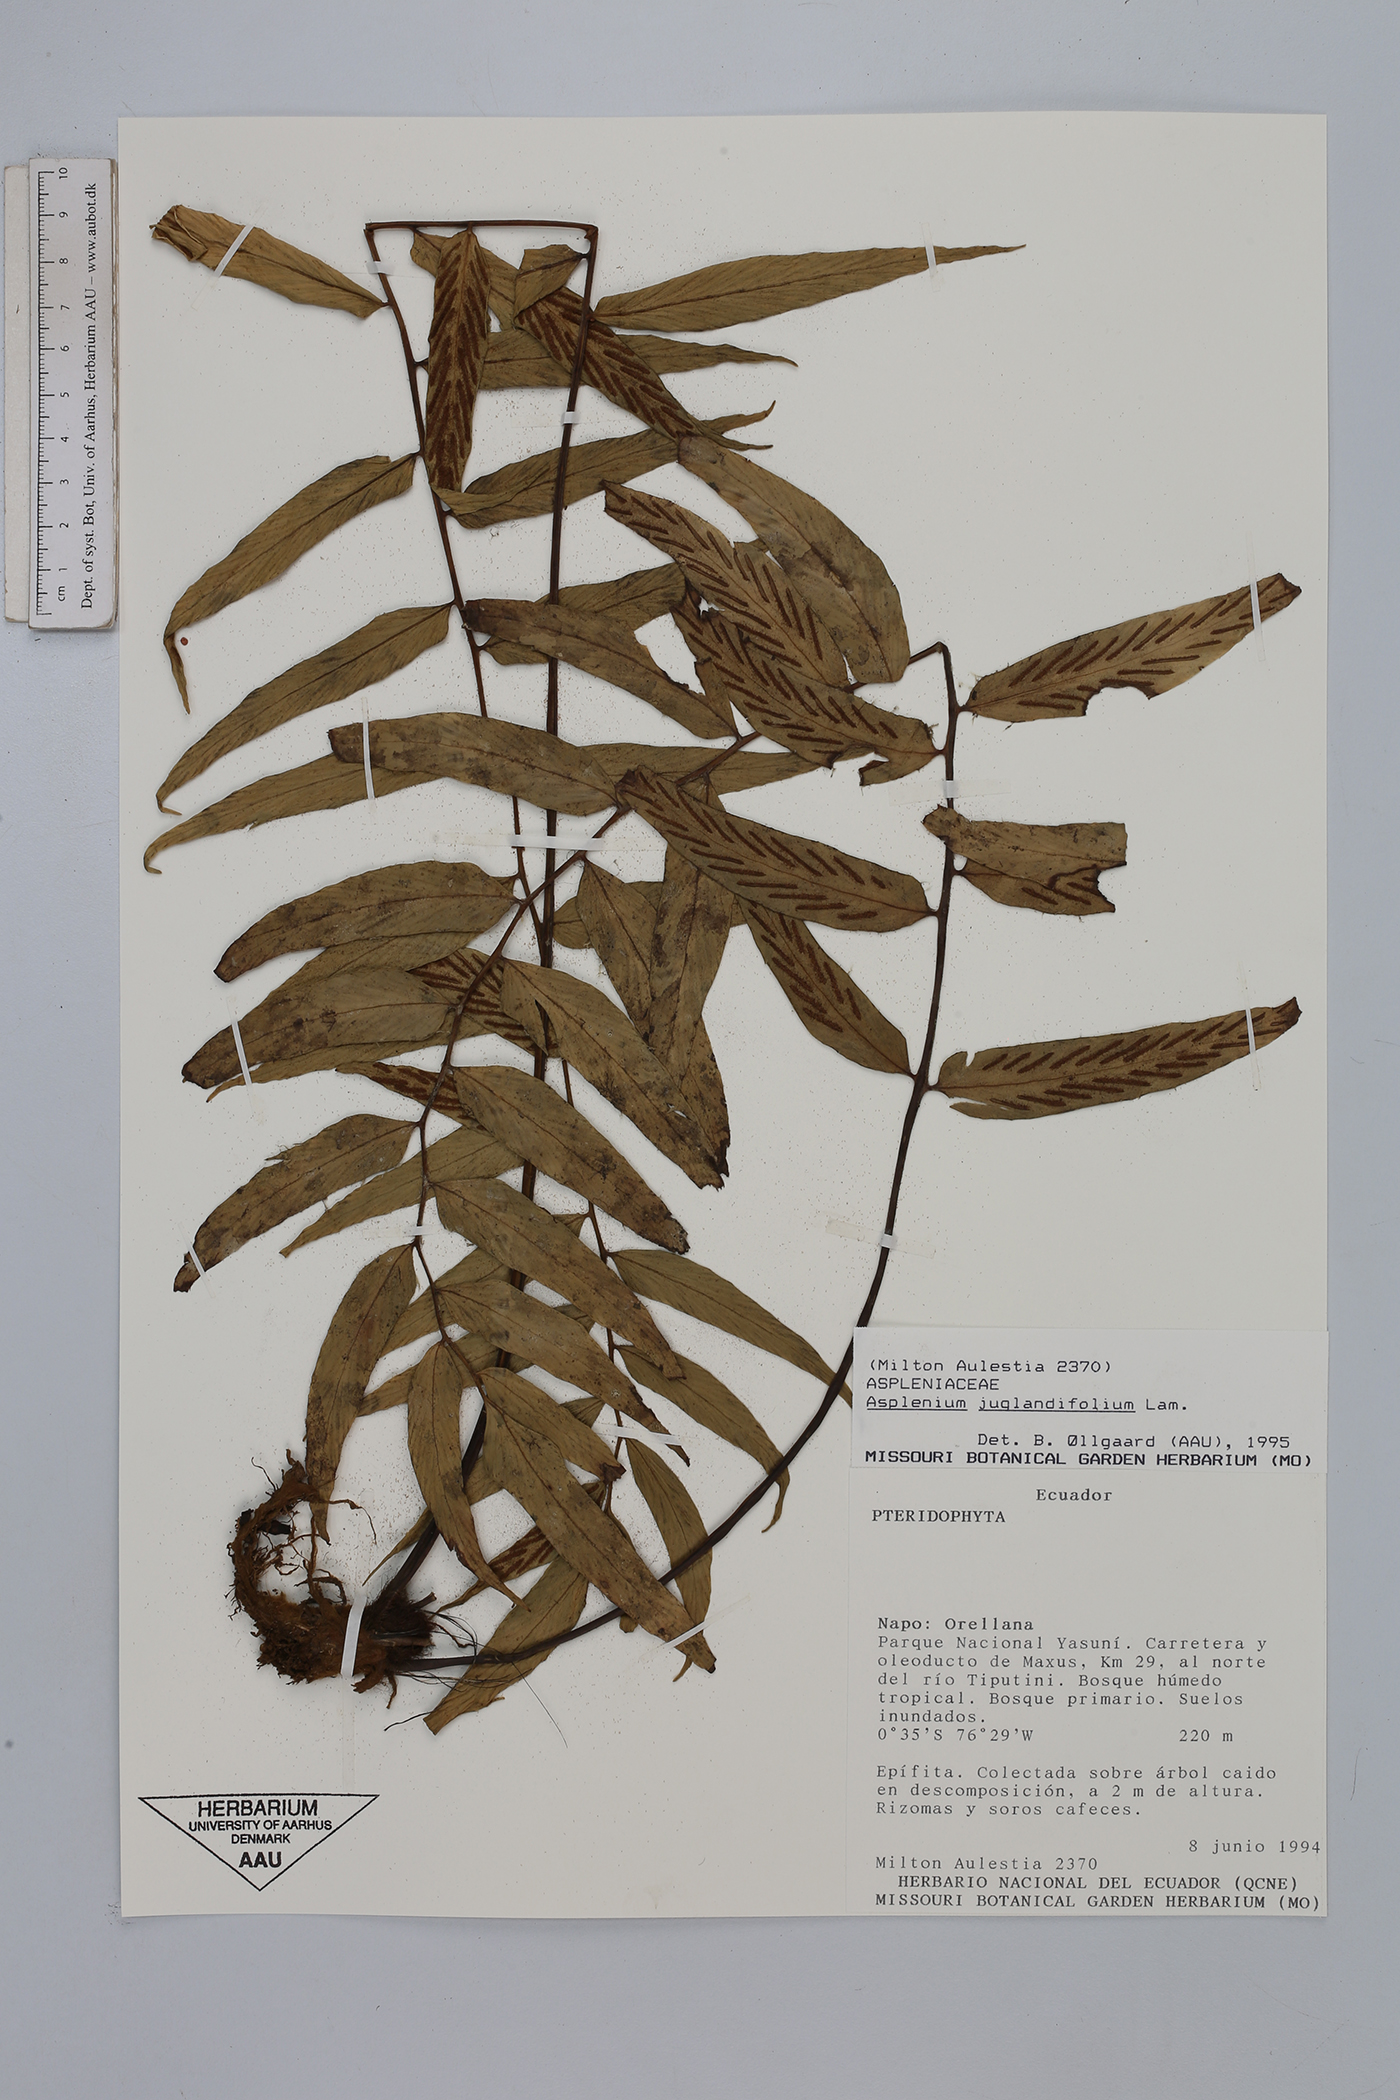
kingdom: Plantae
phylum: Tracheophyta
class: Polypodiopsida
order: Polypodiales
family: Aspleniaceae
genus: Asplenium
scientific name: Asplenium juglandifolium
